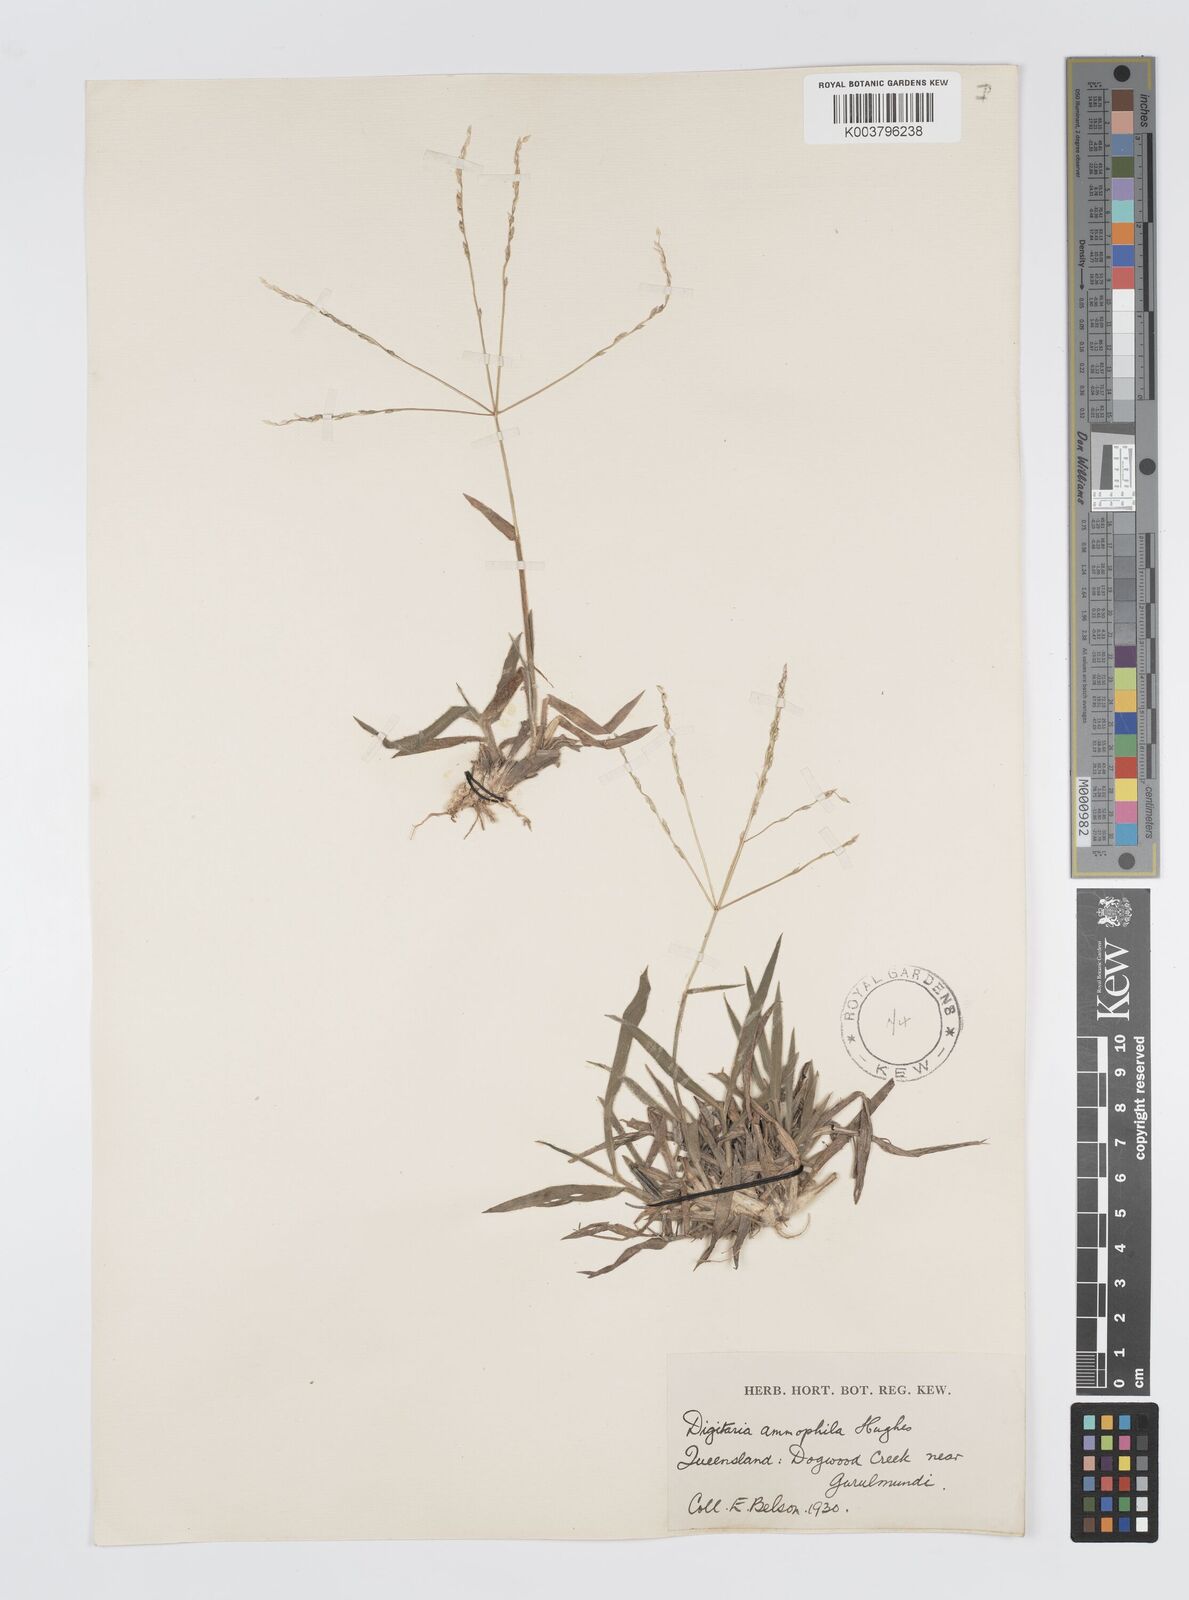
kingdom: Plantae
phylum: Tracheophyta
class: Liliopsida
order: Poales
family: Poaceae
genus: Digitaria
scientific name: Digitaria ammophila
